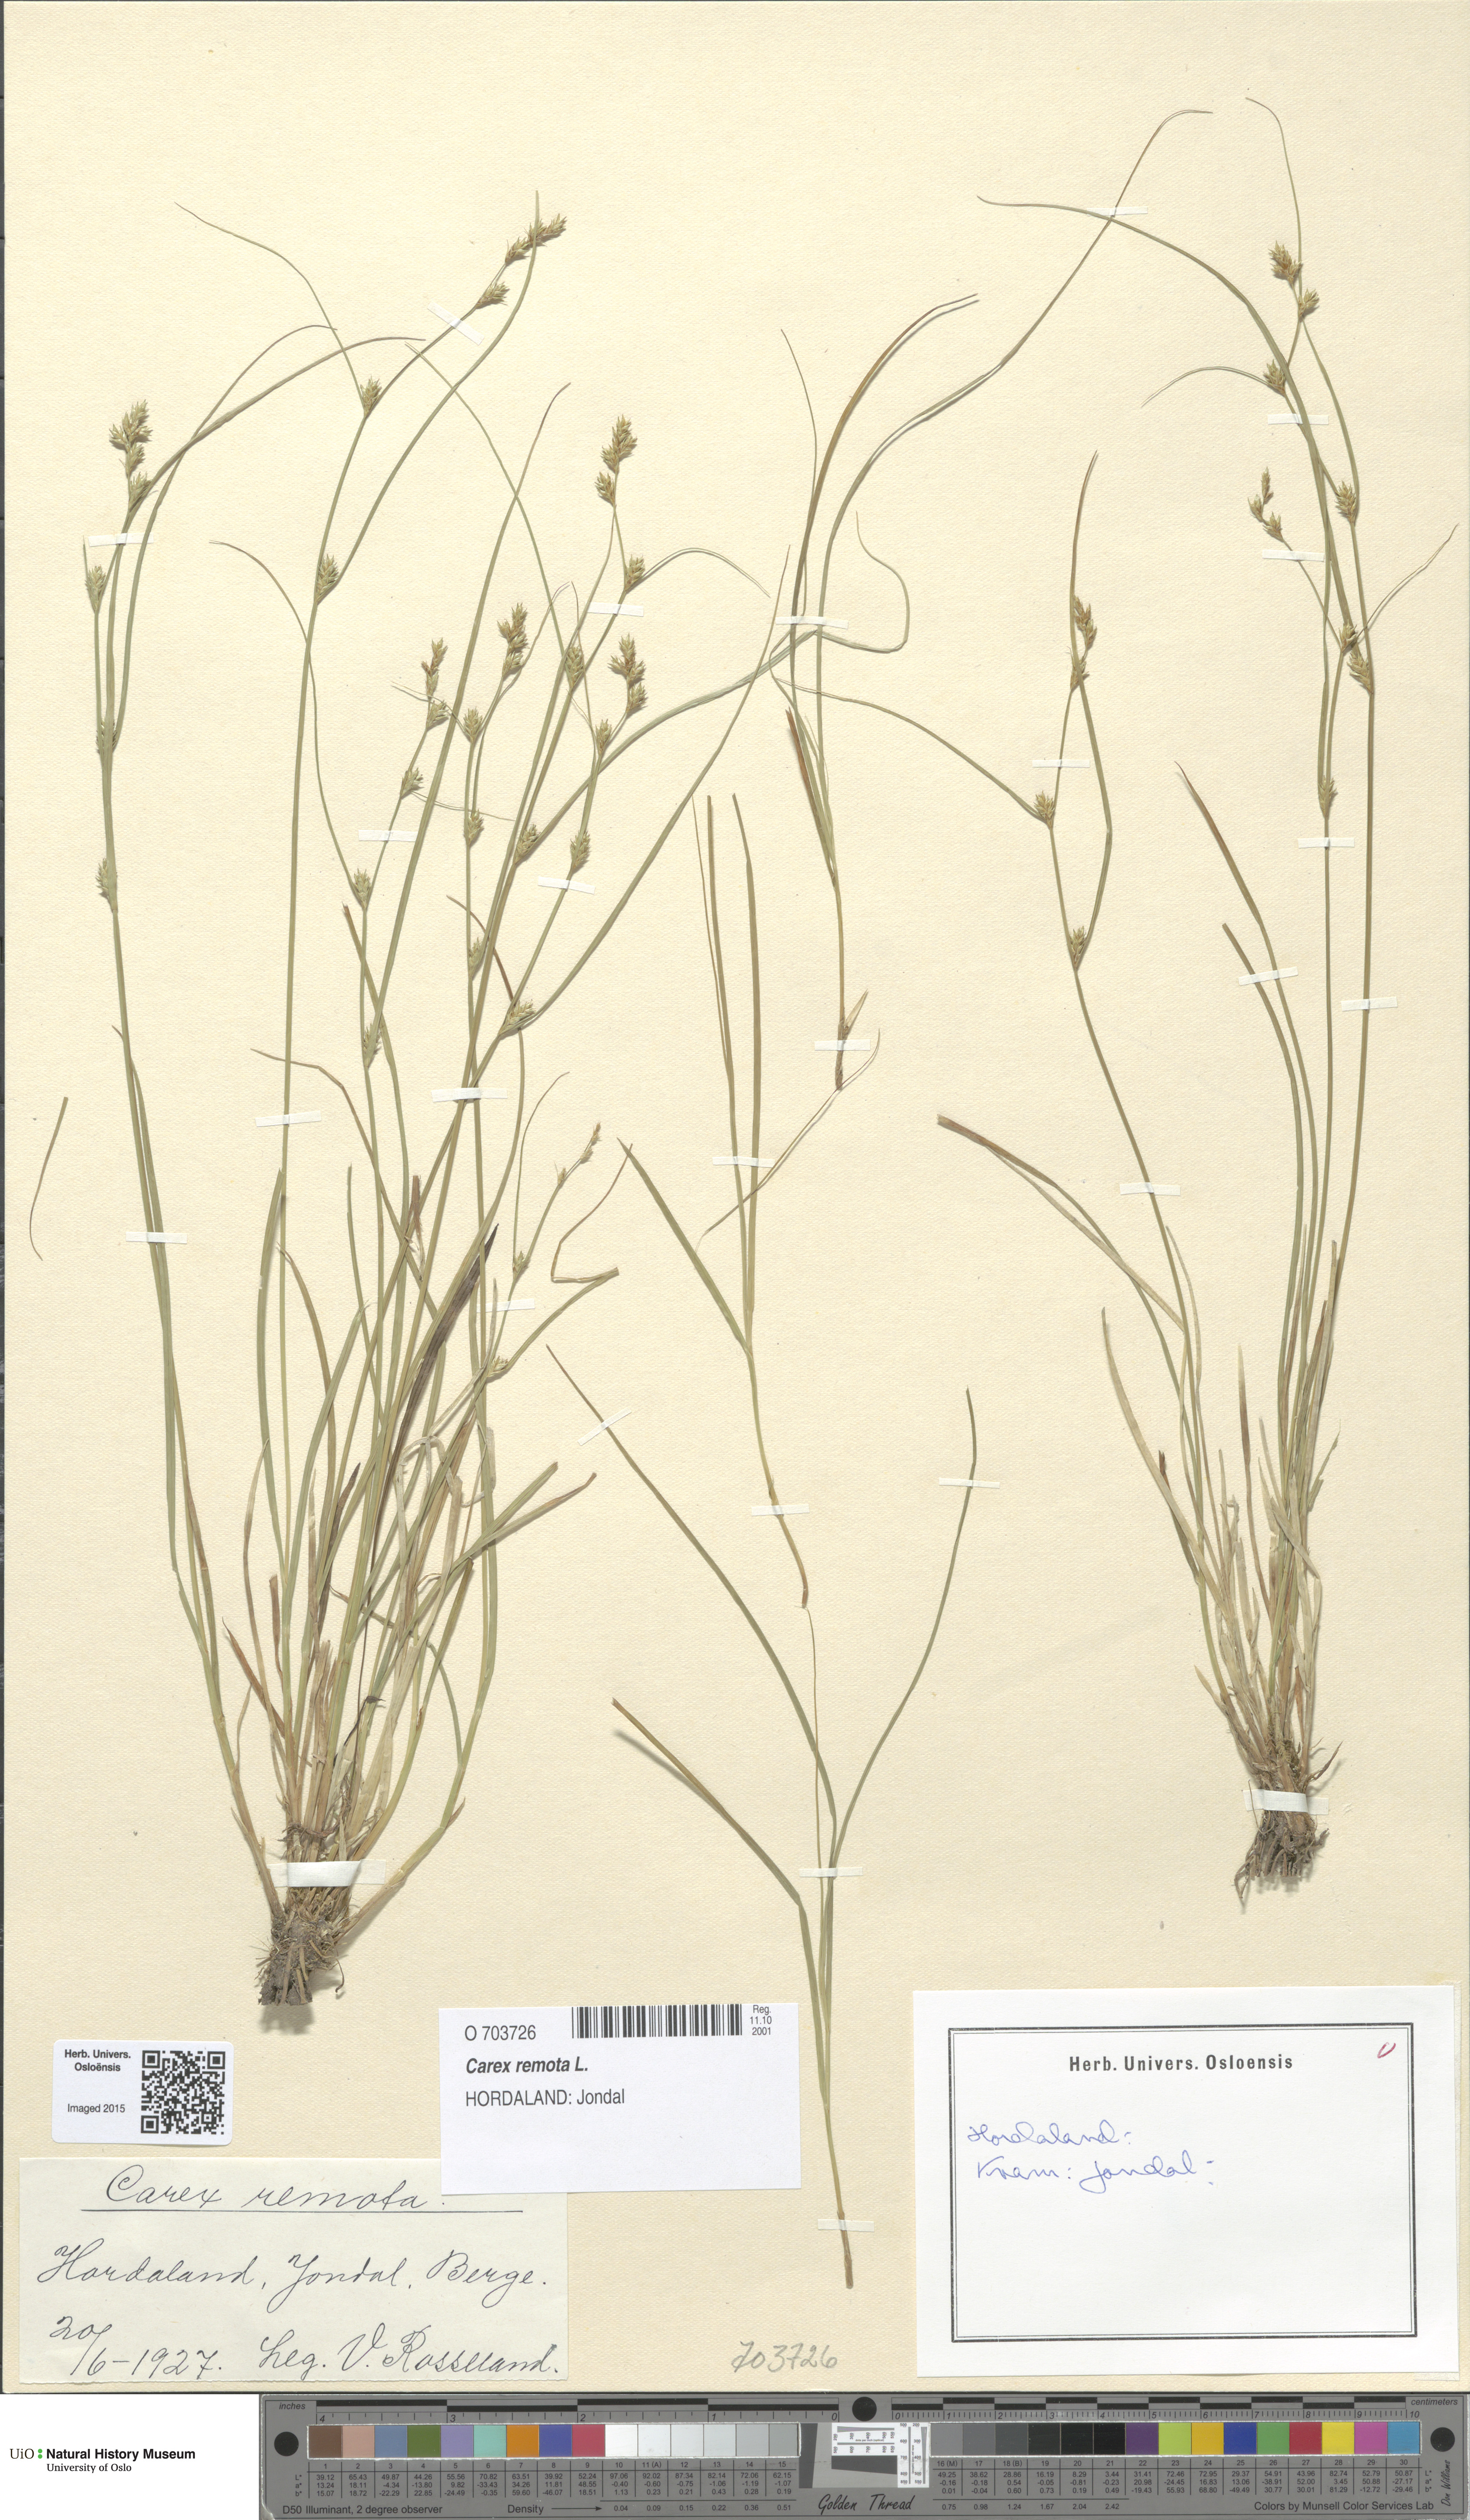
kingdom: Plantae
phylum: Tracheophyta
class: Liliopsida
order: Poales
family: Cyperaceae
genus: Carex
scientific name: Carex remota
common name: Remote sedge
